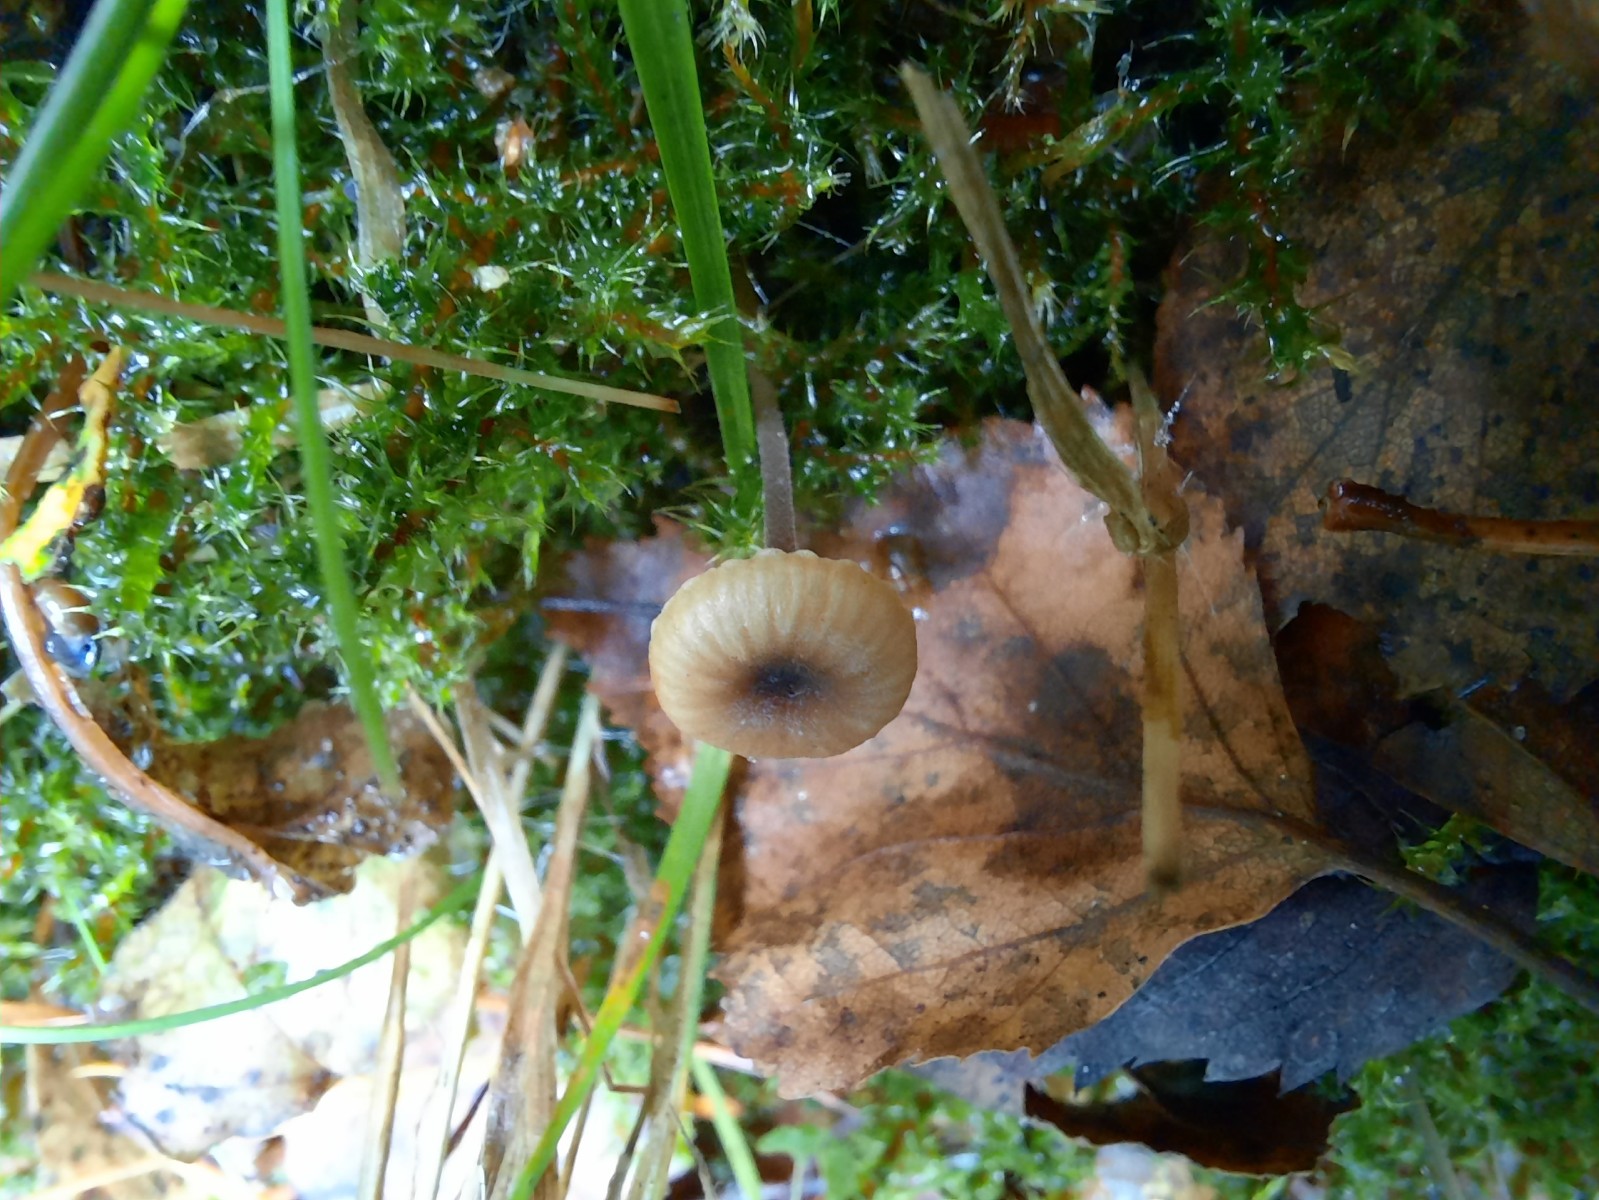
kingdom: Fungi
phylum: Basidiomycota
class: Agaricomycetes
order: Hymenochaetales
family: Rickenellaceae
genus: Rickenella
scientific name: Rickenella swartzii
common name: finstokket mosnavlehat
